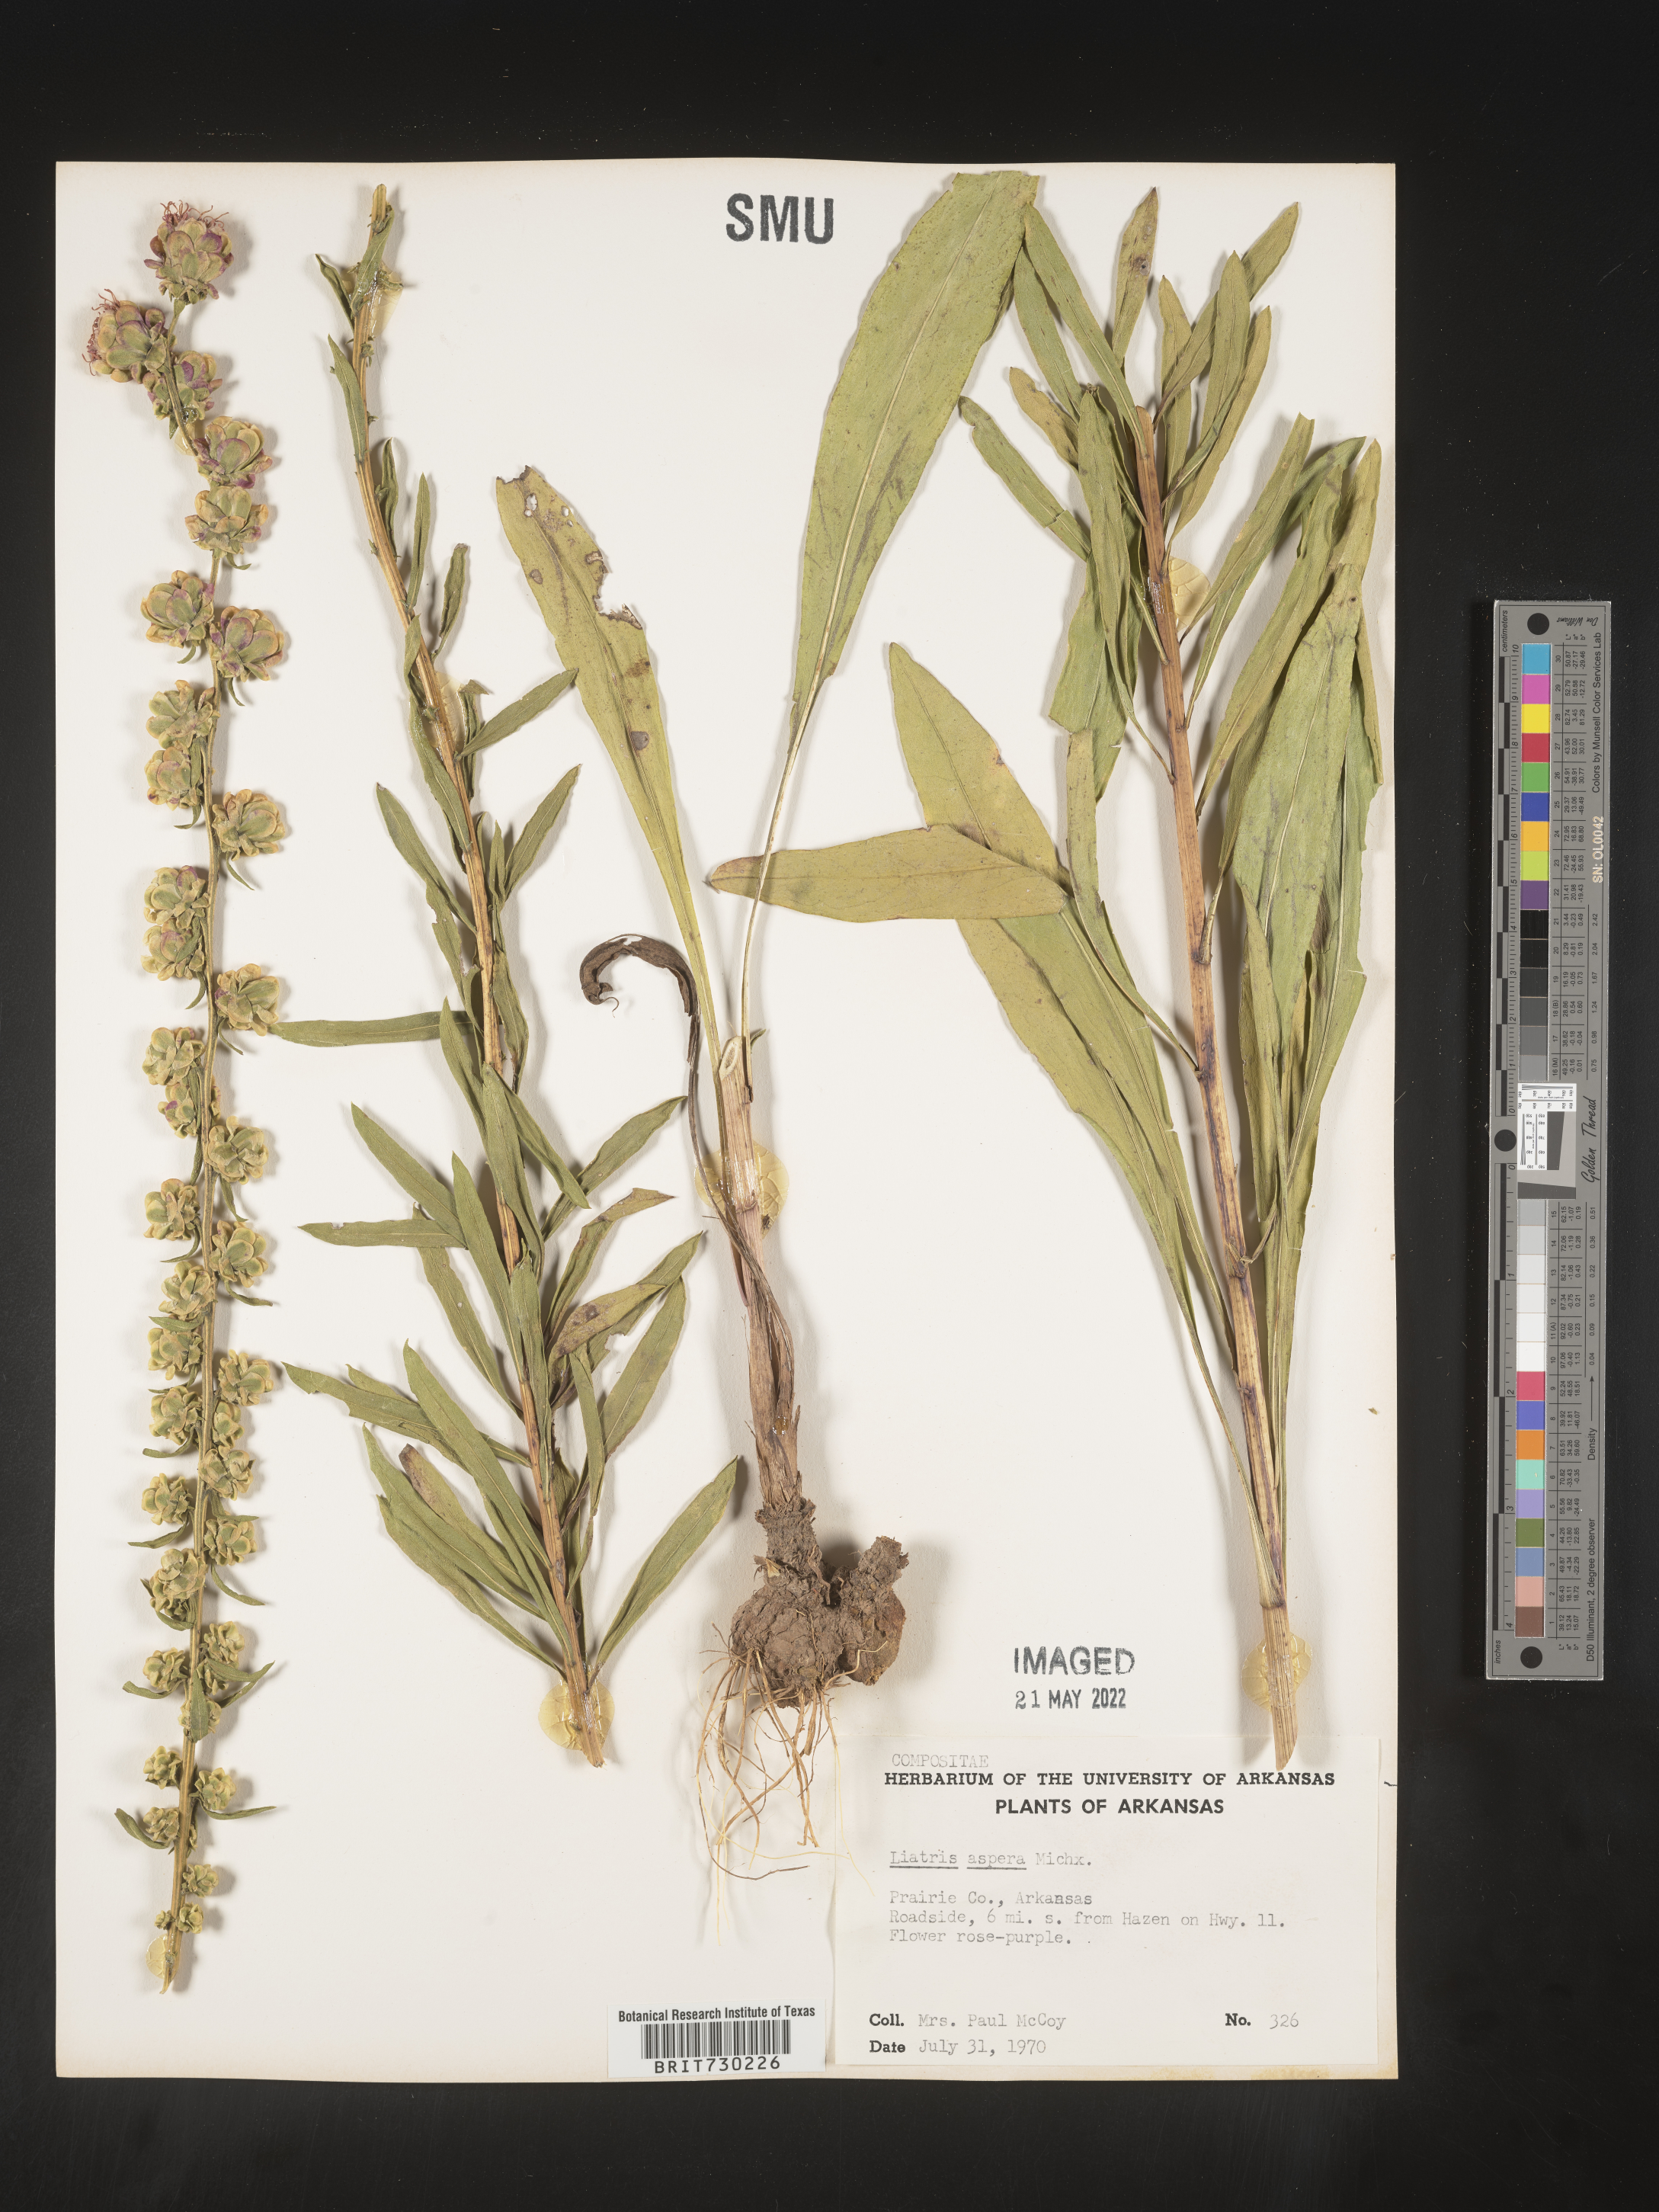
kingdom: Plantae
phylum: Tracheophyta
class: Magnoliopsida
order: Asterales
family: Asteraceae
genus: Liatris
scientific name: Liatris aspera
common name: Lacerate blazing-star
